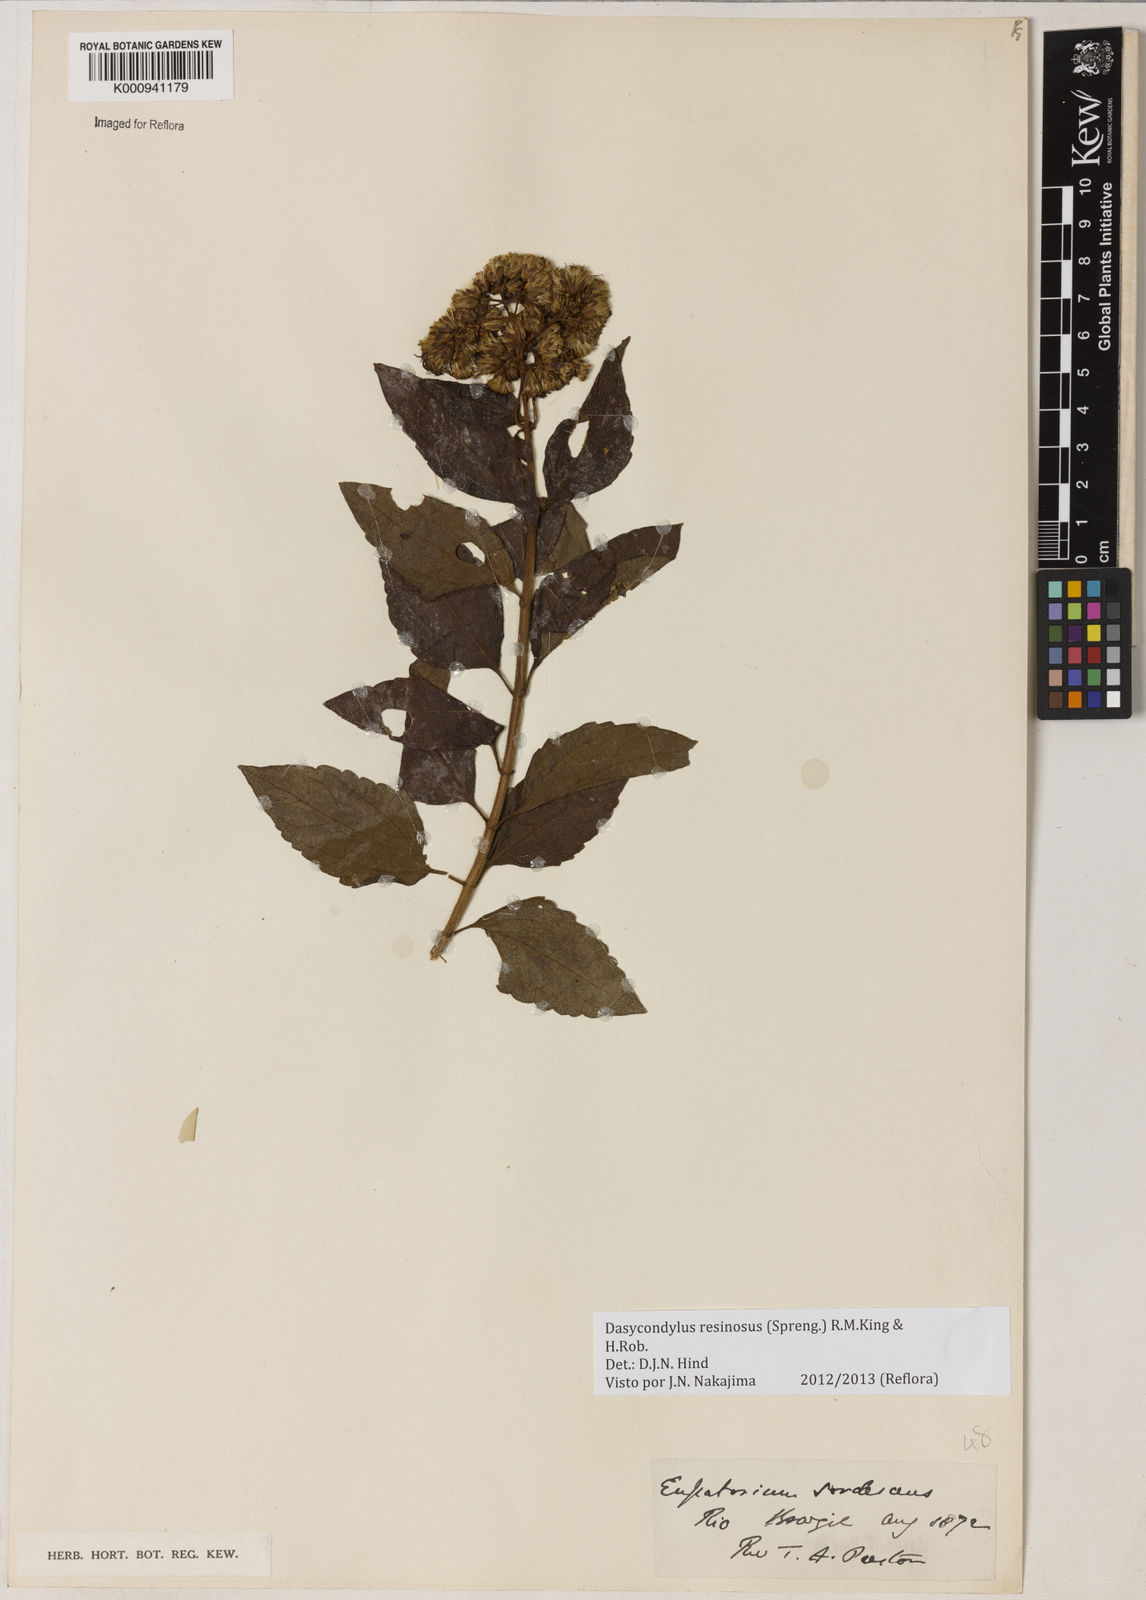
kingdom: Plantae
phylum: Tracheophyta
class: Magnoliopsida
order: Asterales
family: Asteraceae
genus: Dasycondylus
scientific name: Dasycondylus resinosus
